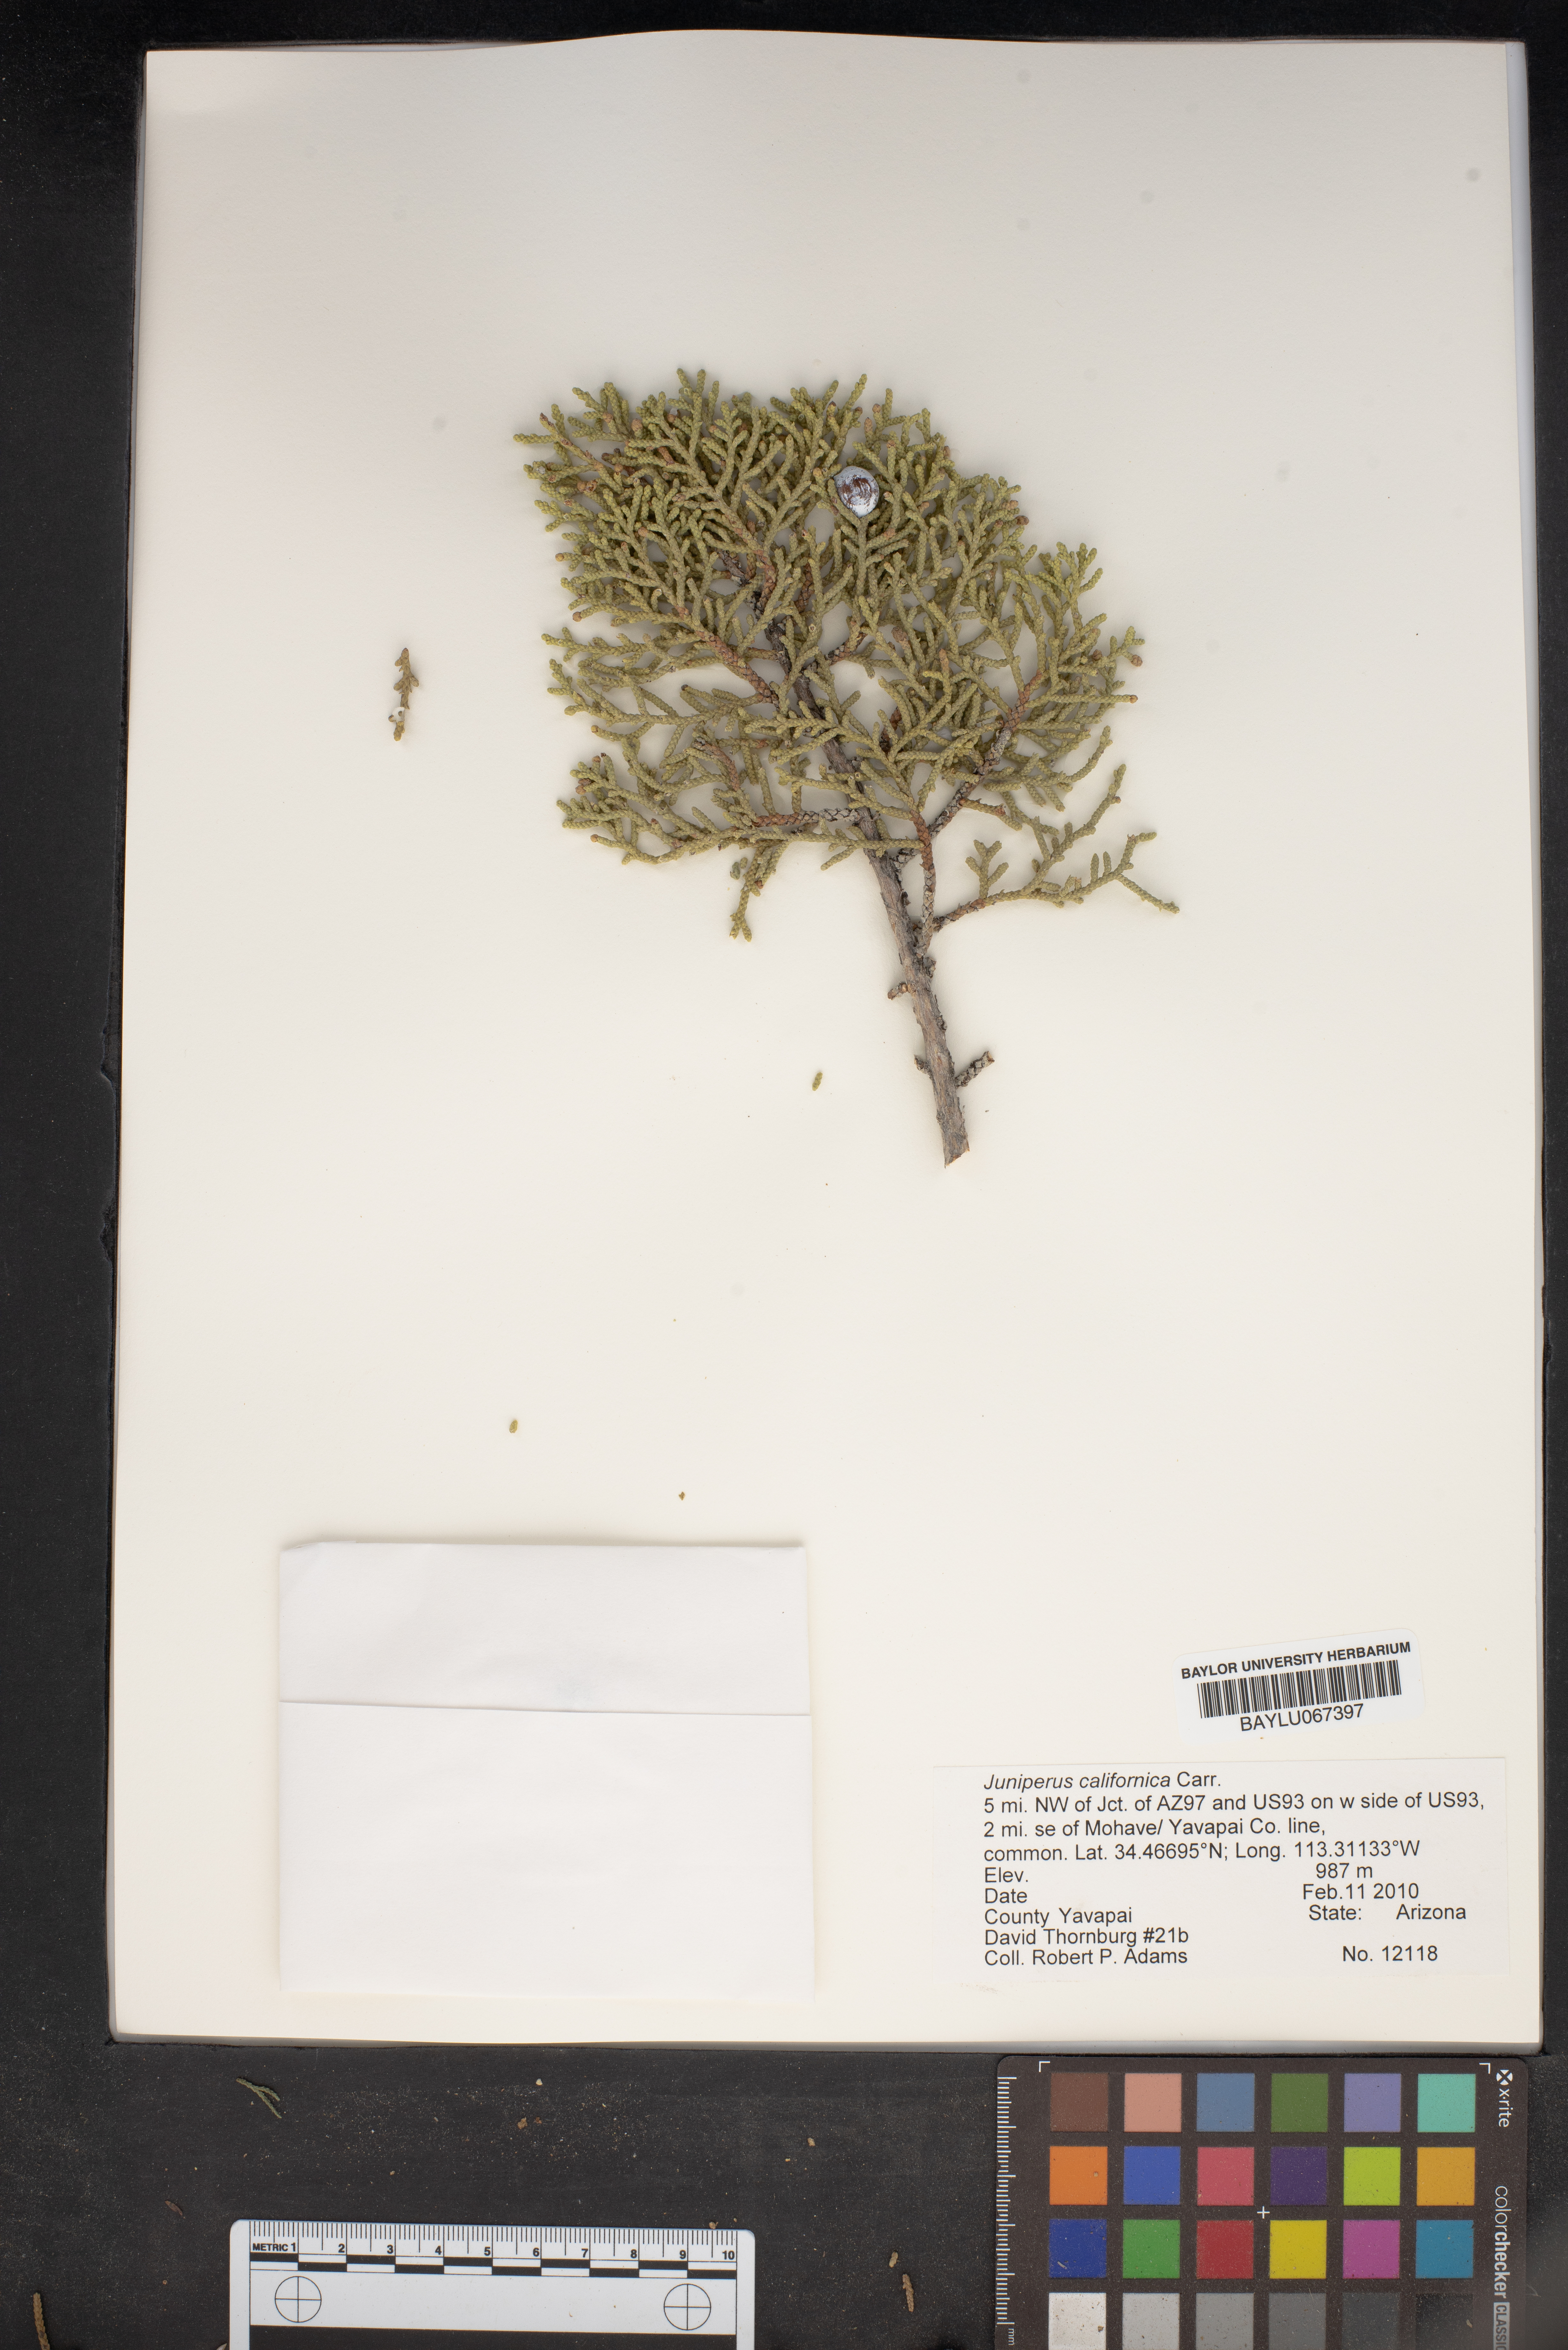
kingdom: Plantae
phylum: Tracheophyta
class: Pinopsida
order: Pinales
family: Cupressaceae
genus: Juniperus
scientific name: Juniperus californica
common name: California juniper
